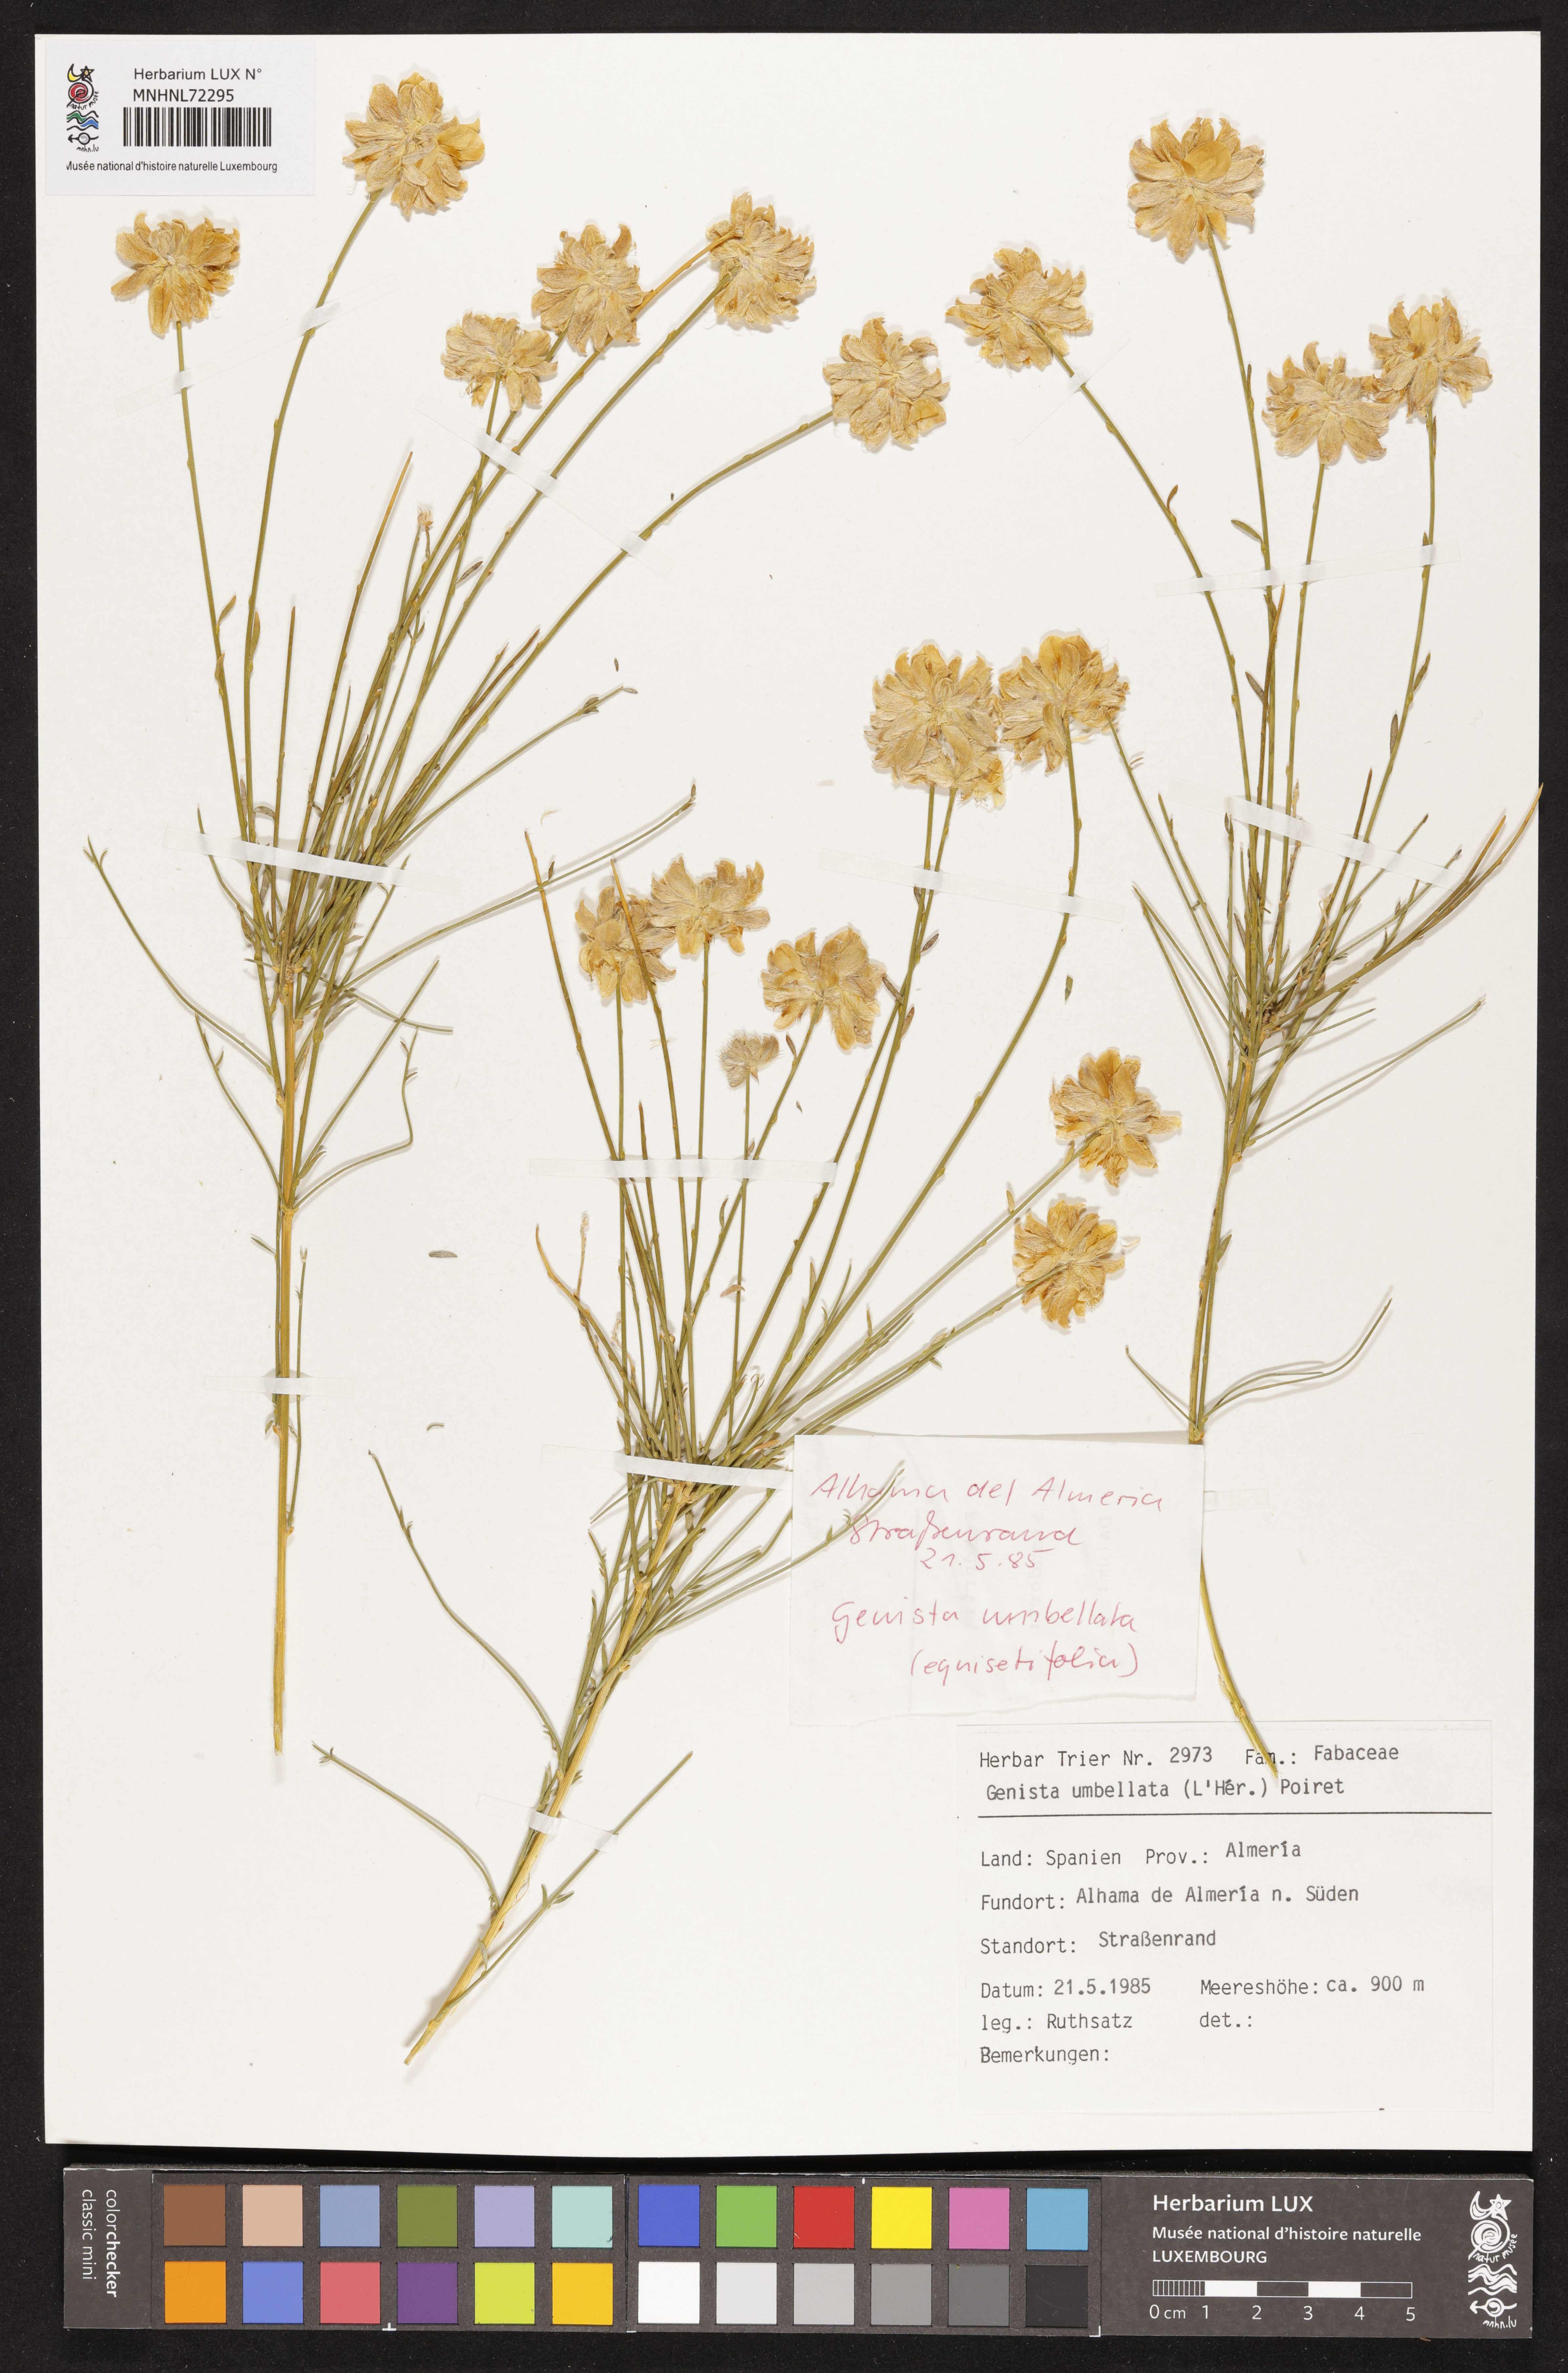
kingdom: Plantae
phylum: Tracheophyta
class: Magnoliopsida
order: Fabales
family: Fabaceae
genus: Genista
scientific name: Genista umbellata
